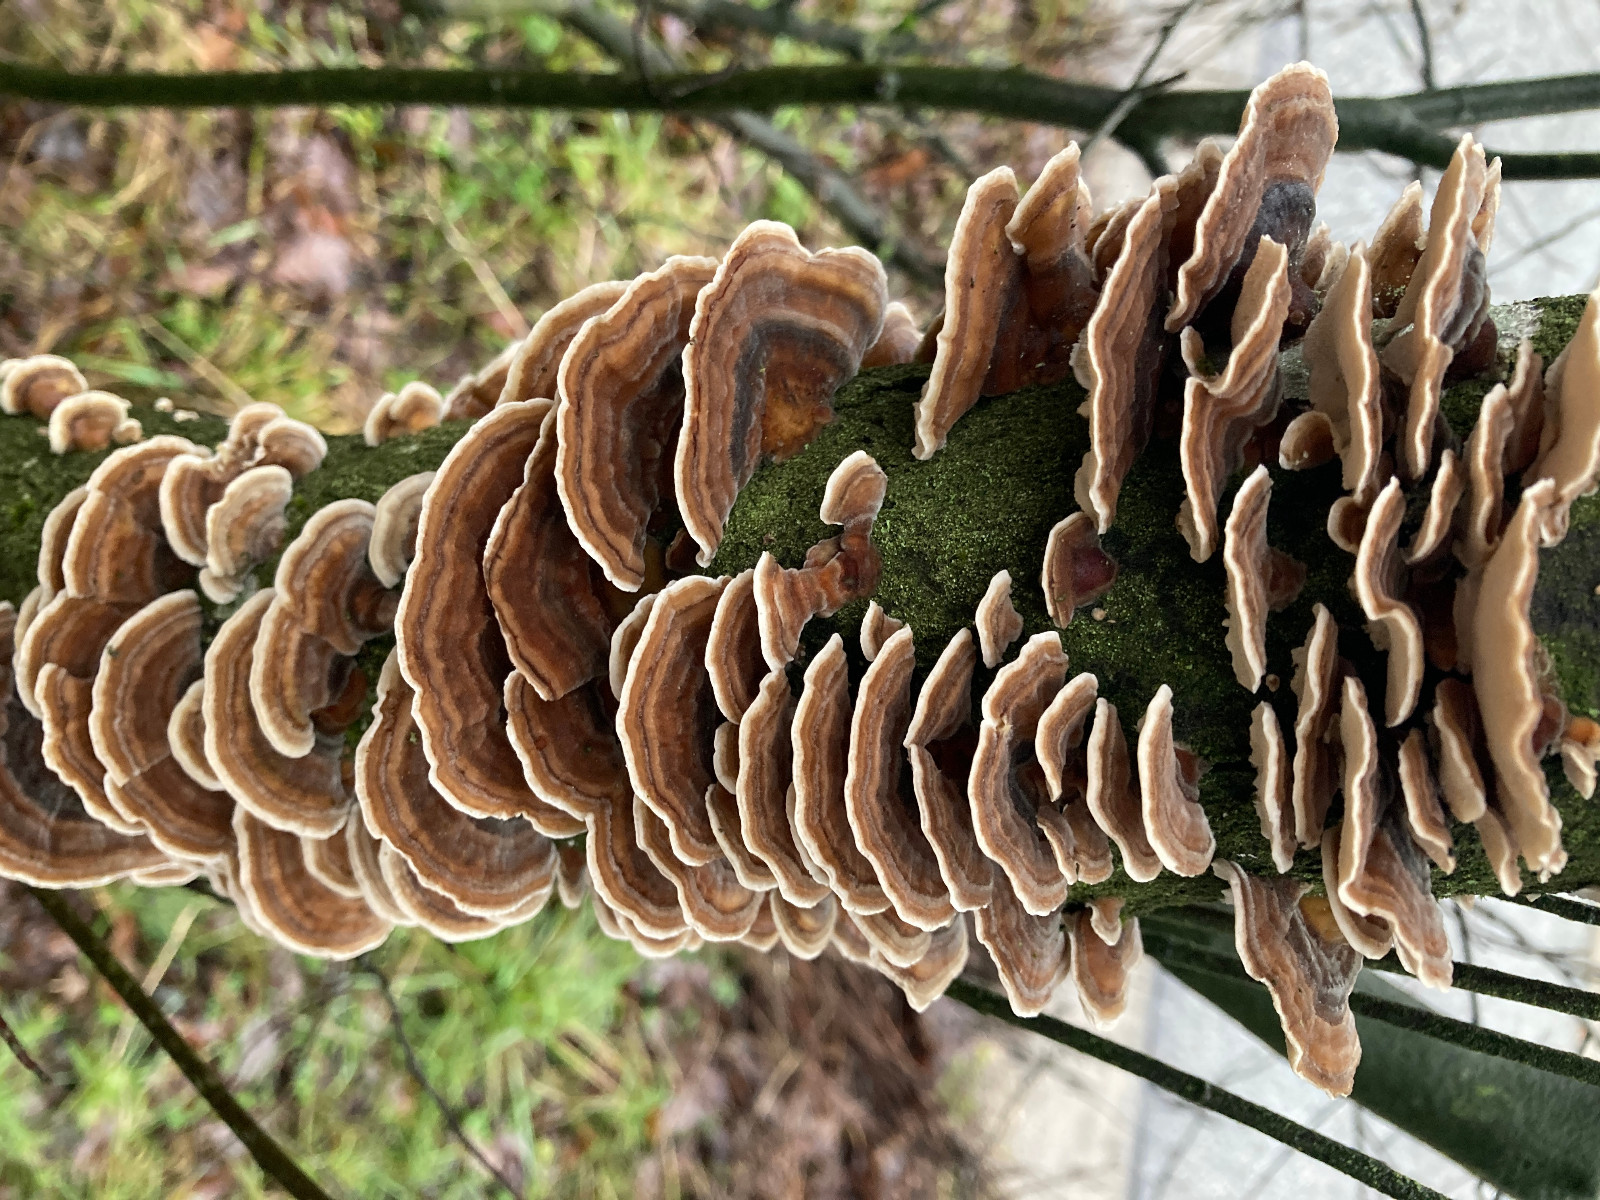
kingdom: Fungi
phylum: Basidiomycota
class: Agaricomycetes
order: Polyporales
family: Polyporaceae
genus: Trametes
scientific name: Trametes versicolor
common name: broget læderporesvamp
